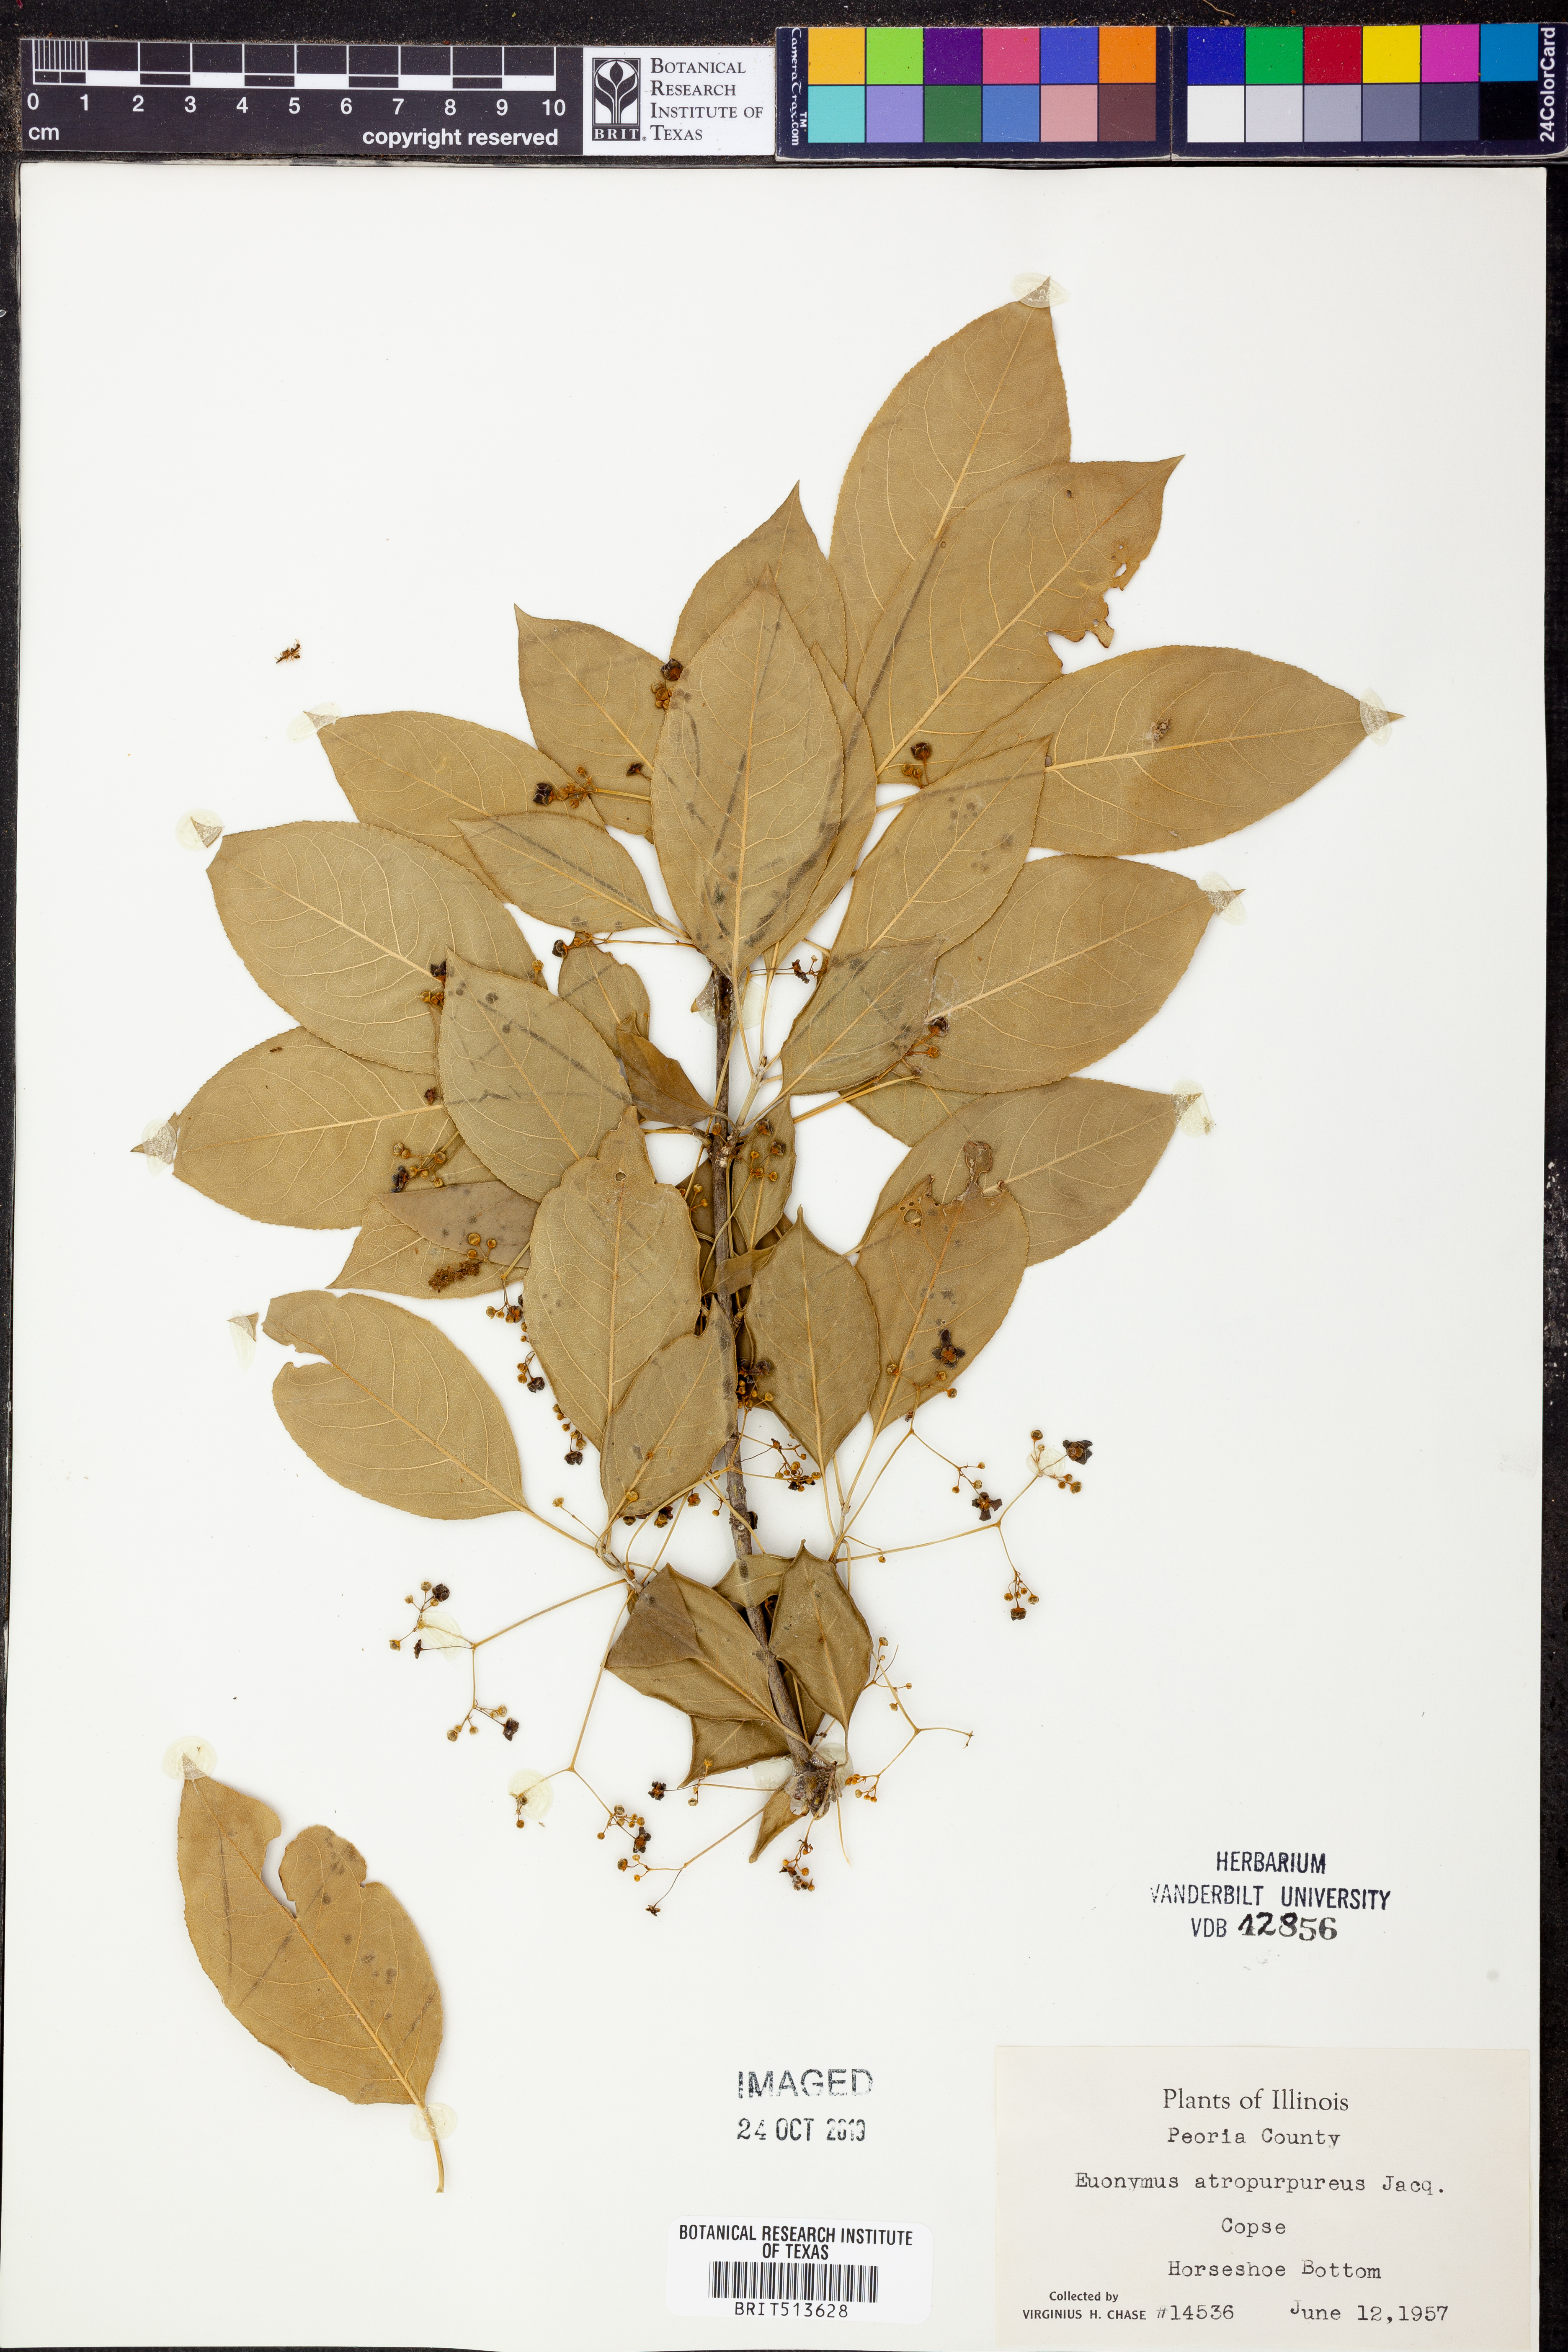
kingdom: Plantae
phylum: Tracheophyta
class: Magnoliopsida
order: Celastrales
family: Celastraceae
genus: Euonymus
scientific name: Euonymus atropurpureus
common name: Eastern wahoo
